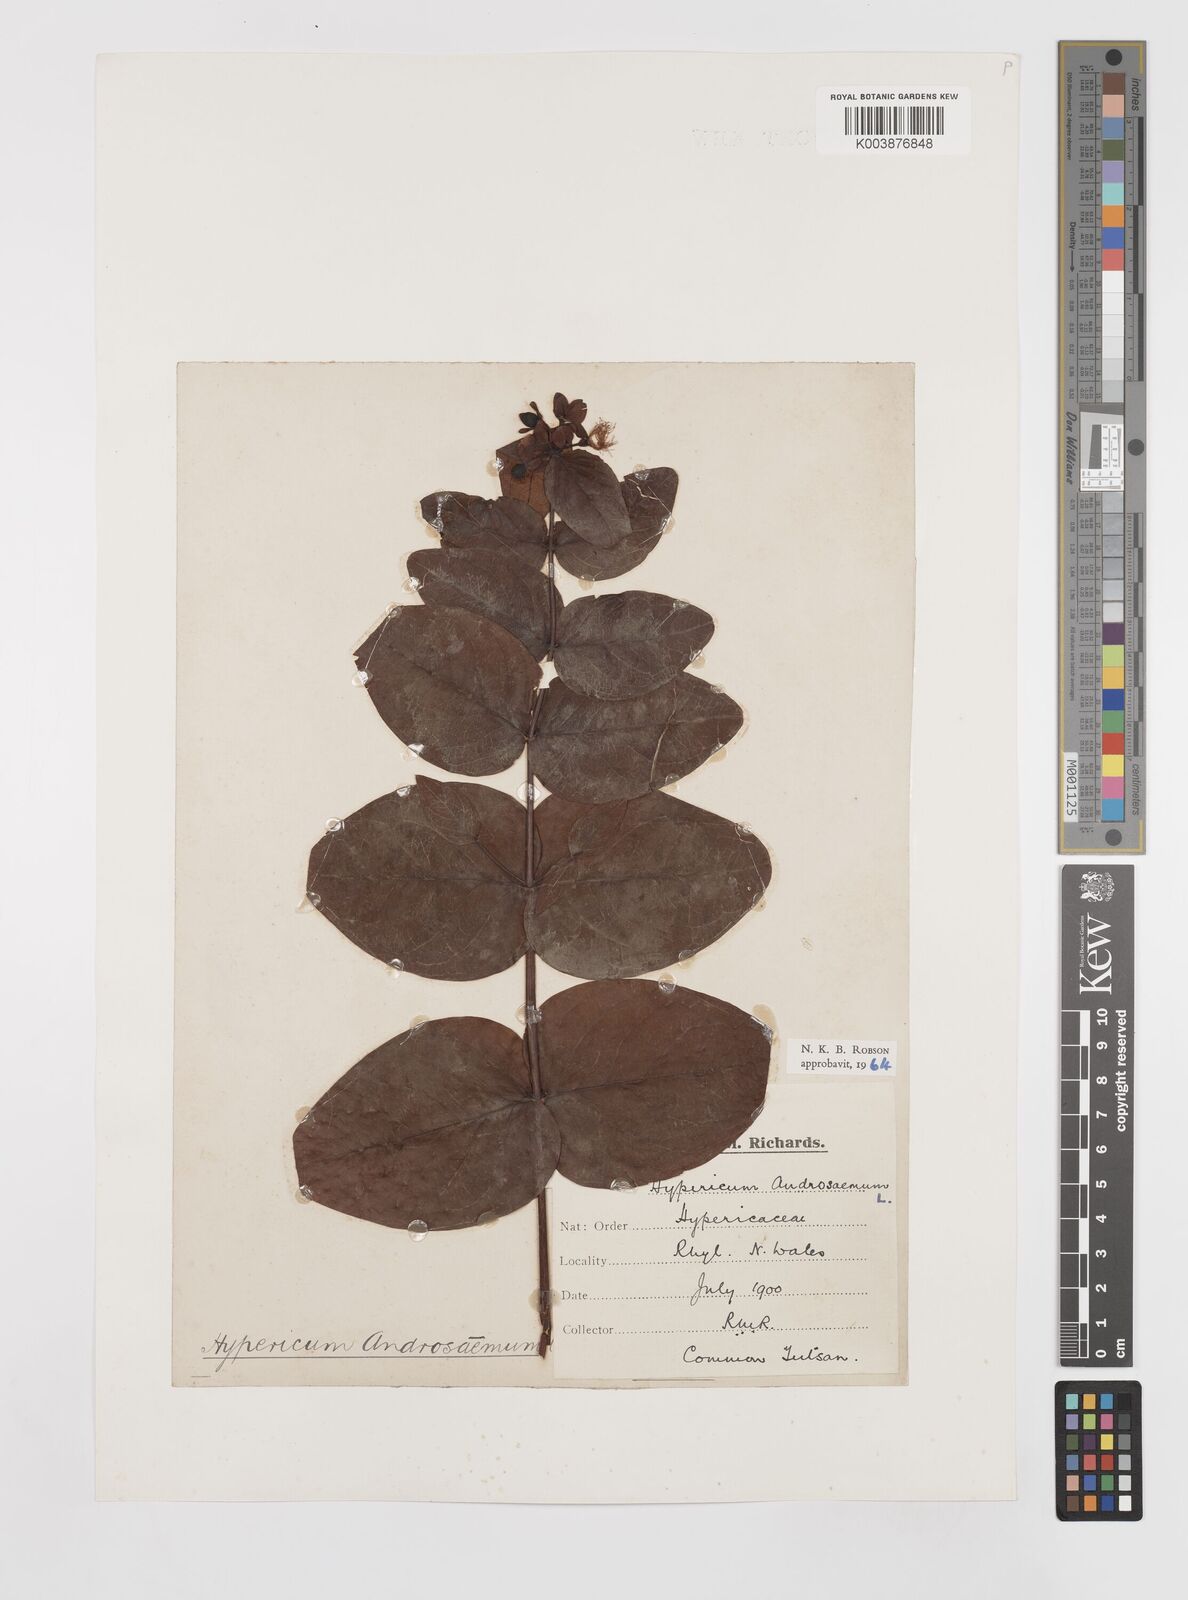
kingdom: Plantae
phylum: Tracheophyta
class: Magnoliopsida
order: Malpighiales
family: Hypericaceae
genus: Hypericum
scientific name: Hypericum androsaemum
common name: Sweet-amber
